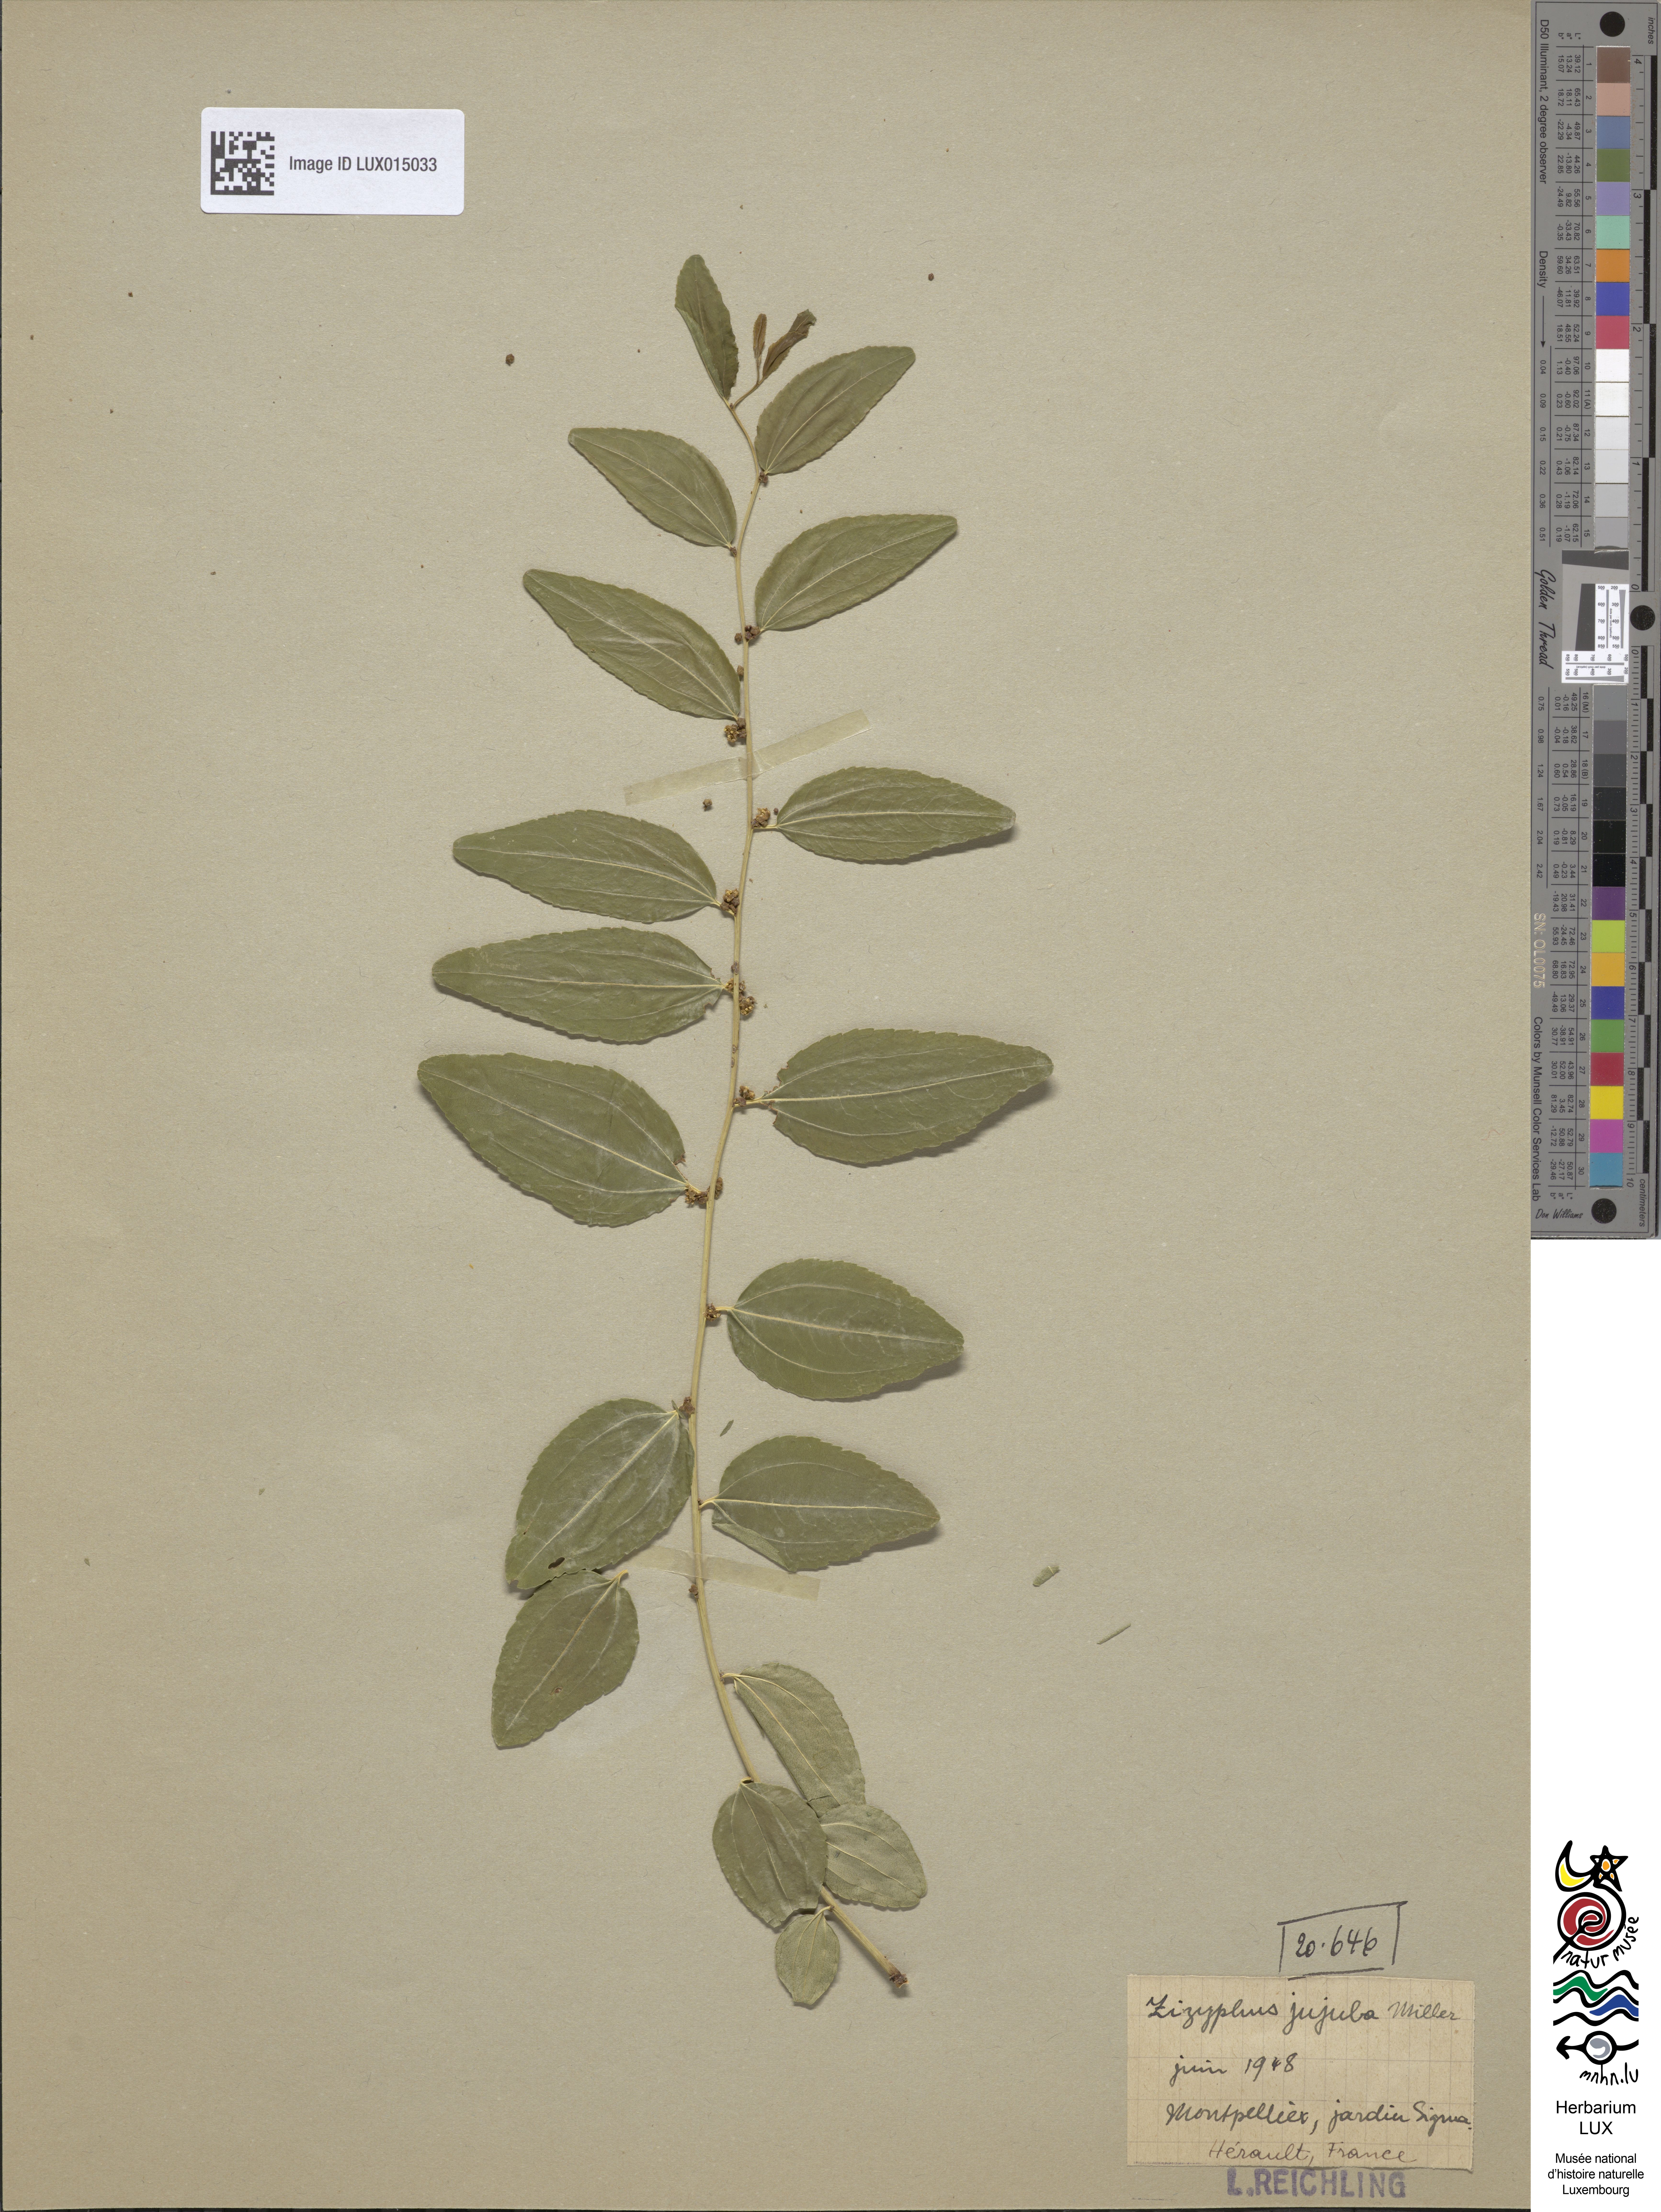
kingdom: Plantae
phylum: Tracheophyta
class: Magnoliopsida
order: Rosales
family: Rhamnaceae
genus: Ziziphus
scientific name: Ziziphus jujuba
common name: Jujube red date
